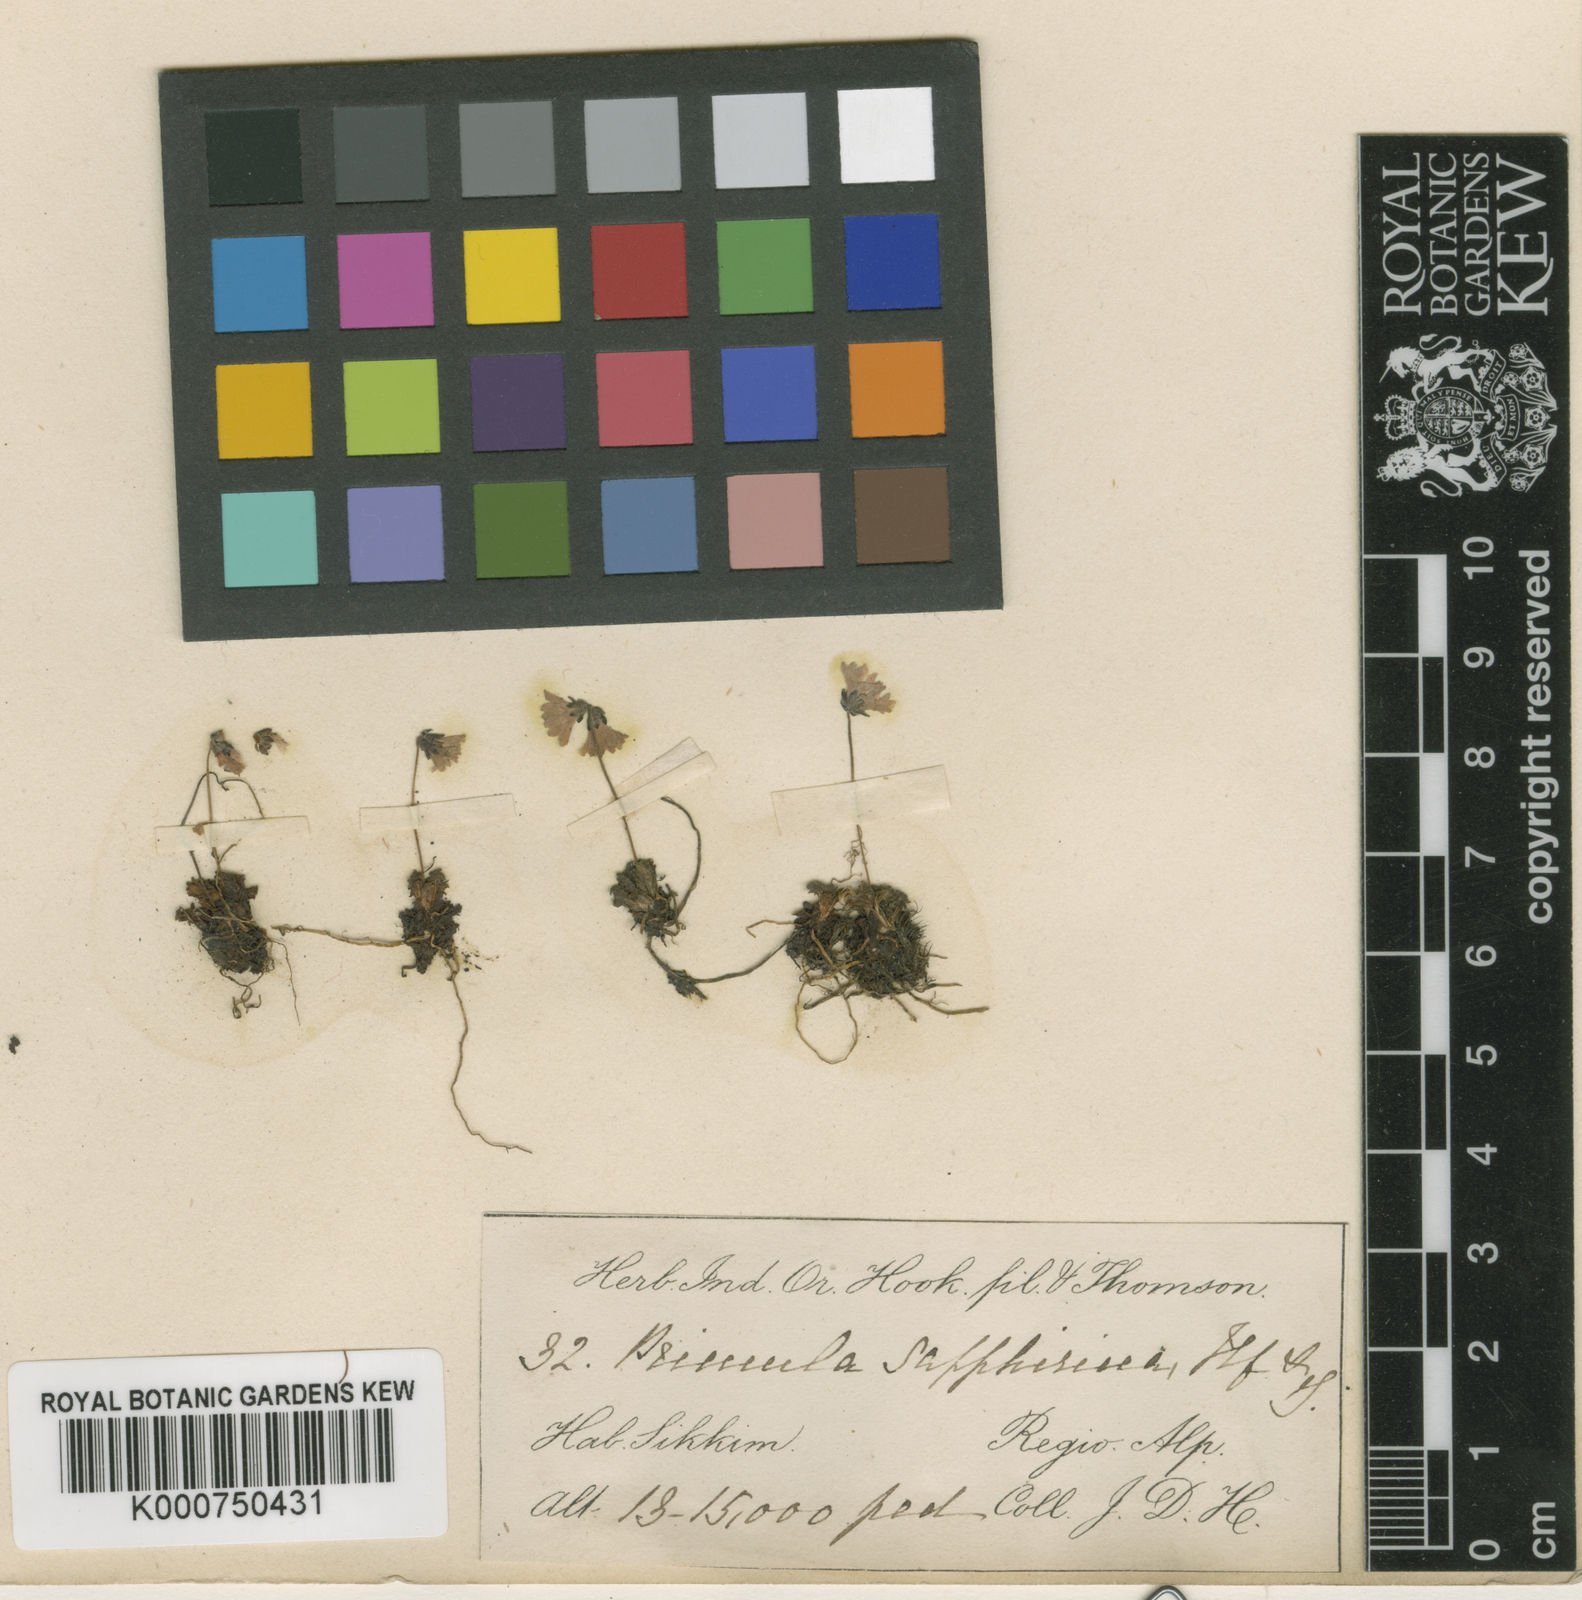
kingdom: Plantae
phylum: Tracheophyta
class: Magnoliopsida
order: Ericales
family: Primulaceae
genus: Primula
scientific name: Primula sapphirina
